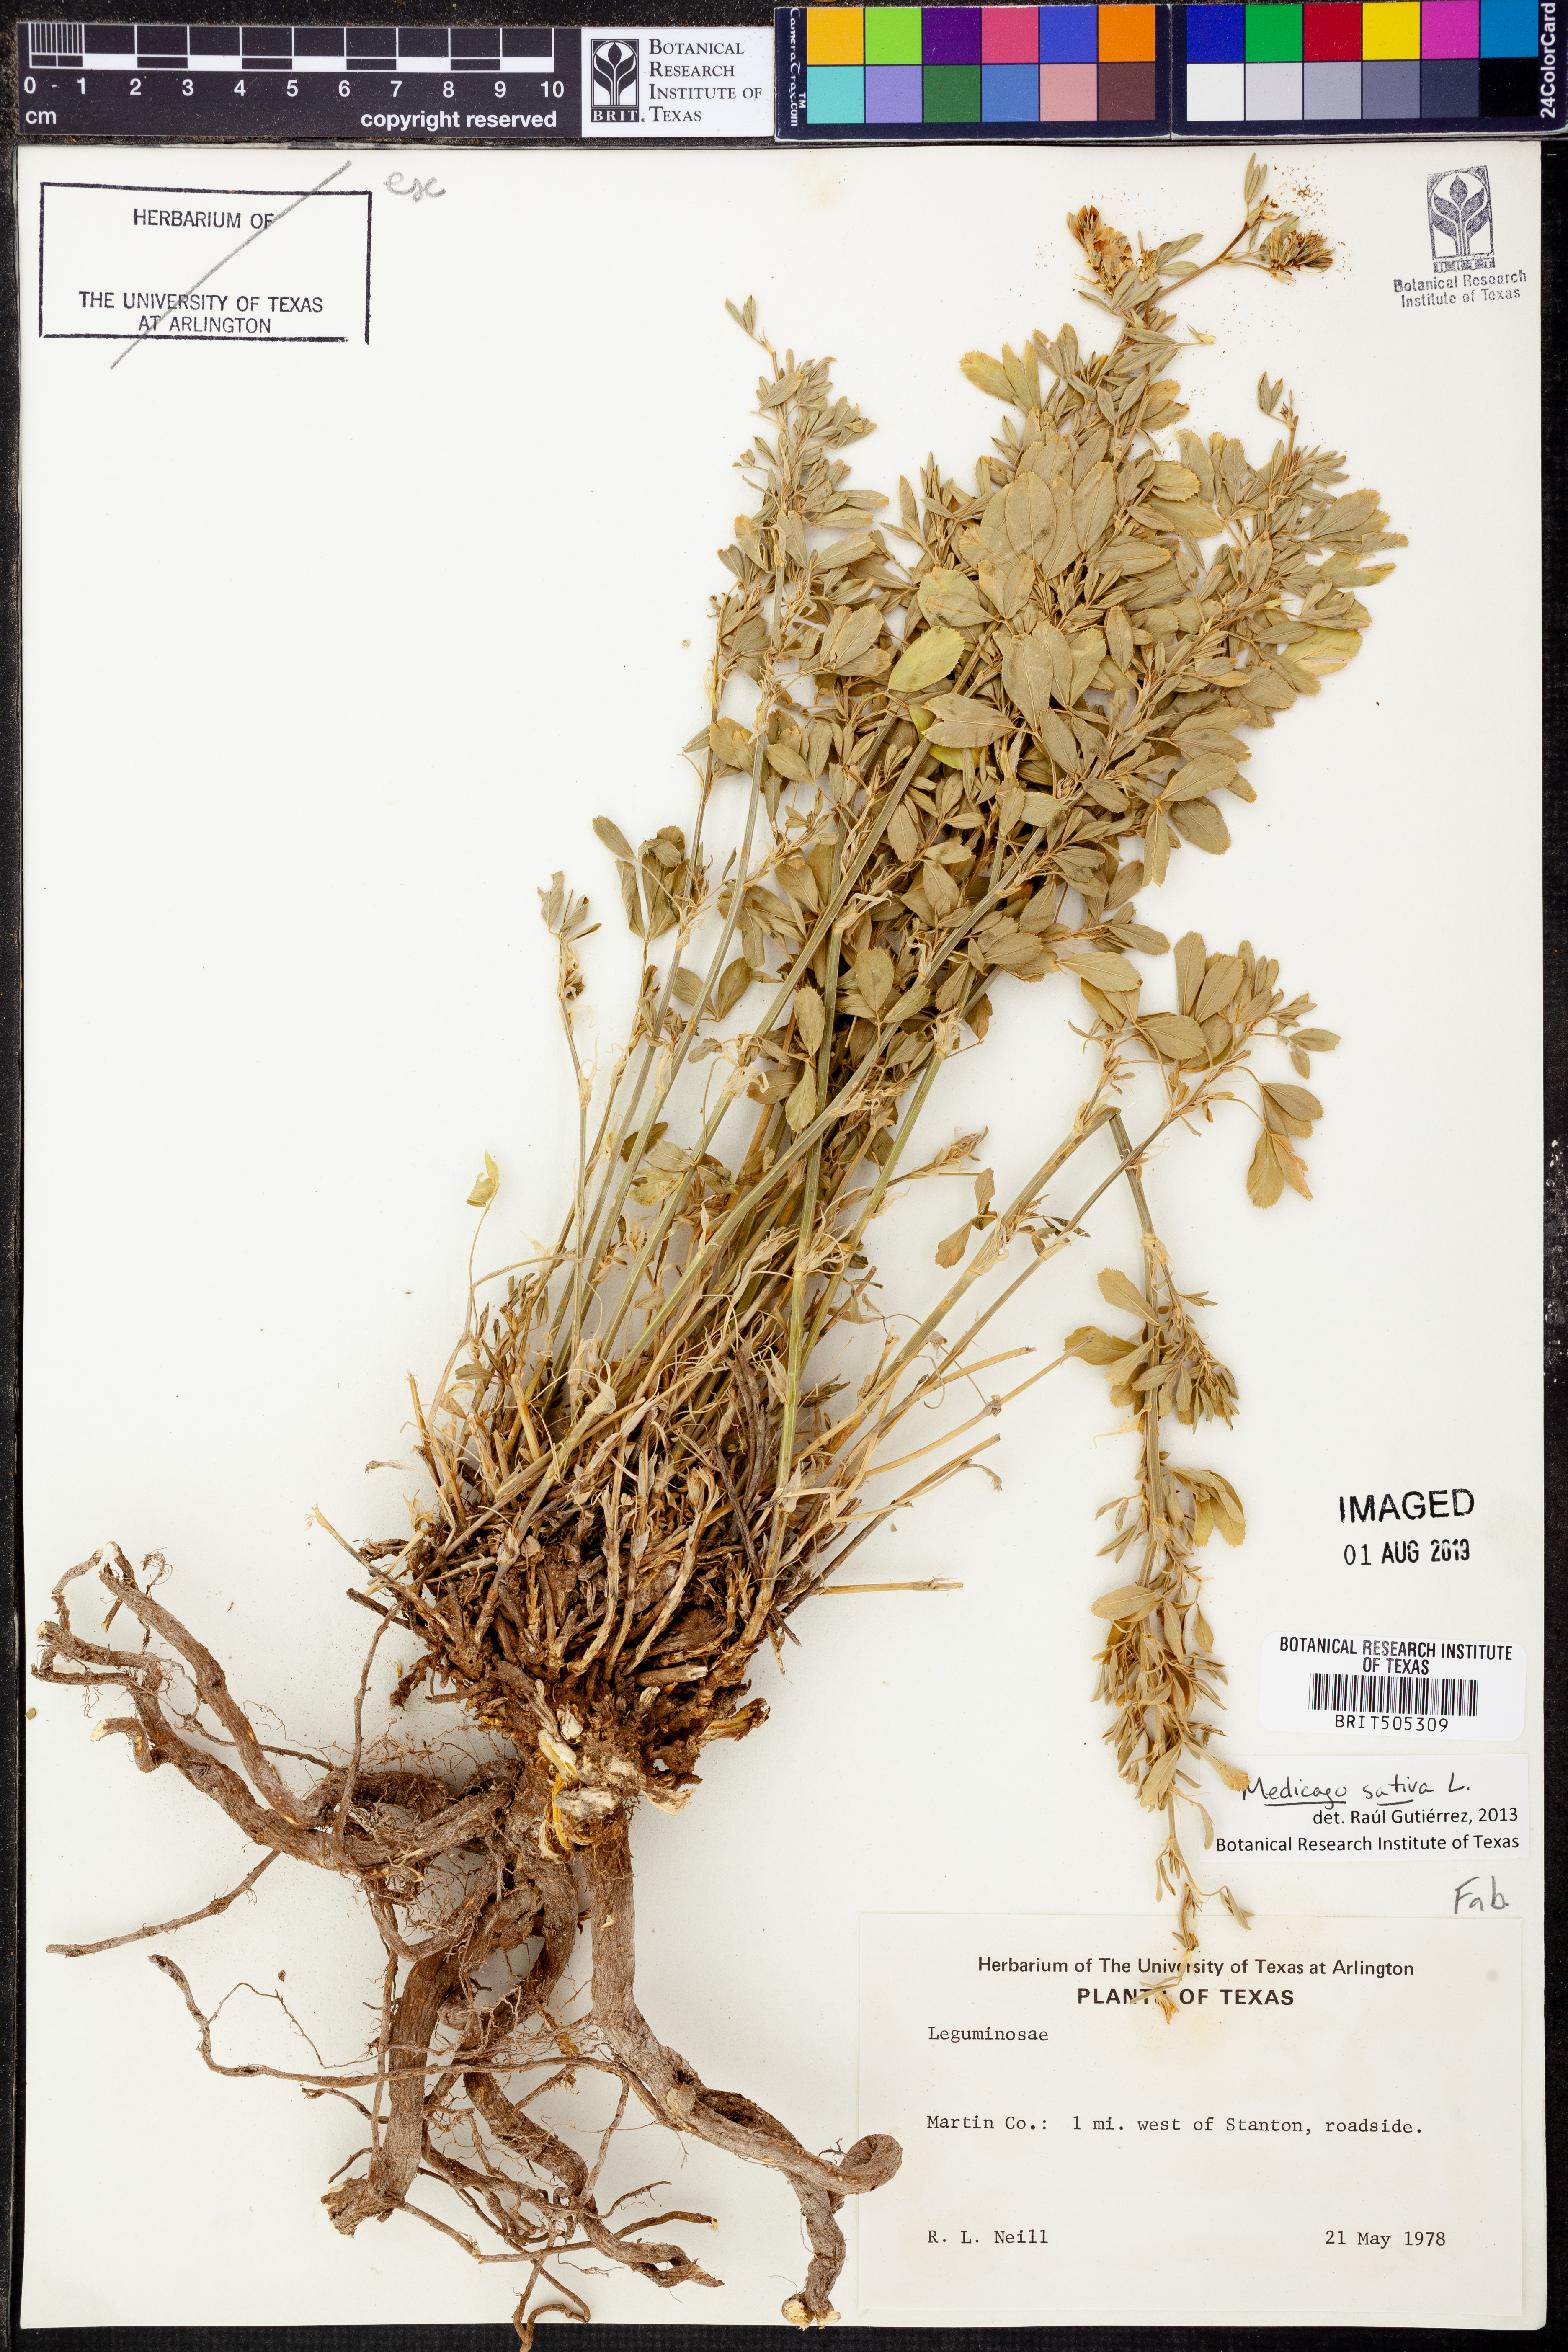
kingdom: Plantae
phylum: Tracheophyta
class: Magnoliopsida
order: Fabales
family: Fabaceae
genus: Medicago
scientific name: Medicago sativa
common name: Alfalfa
